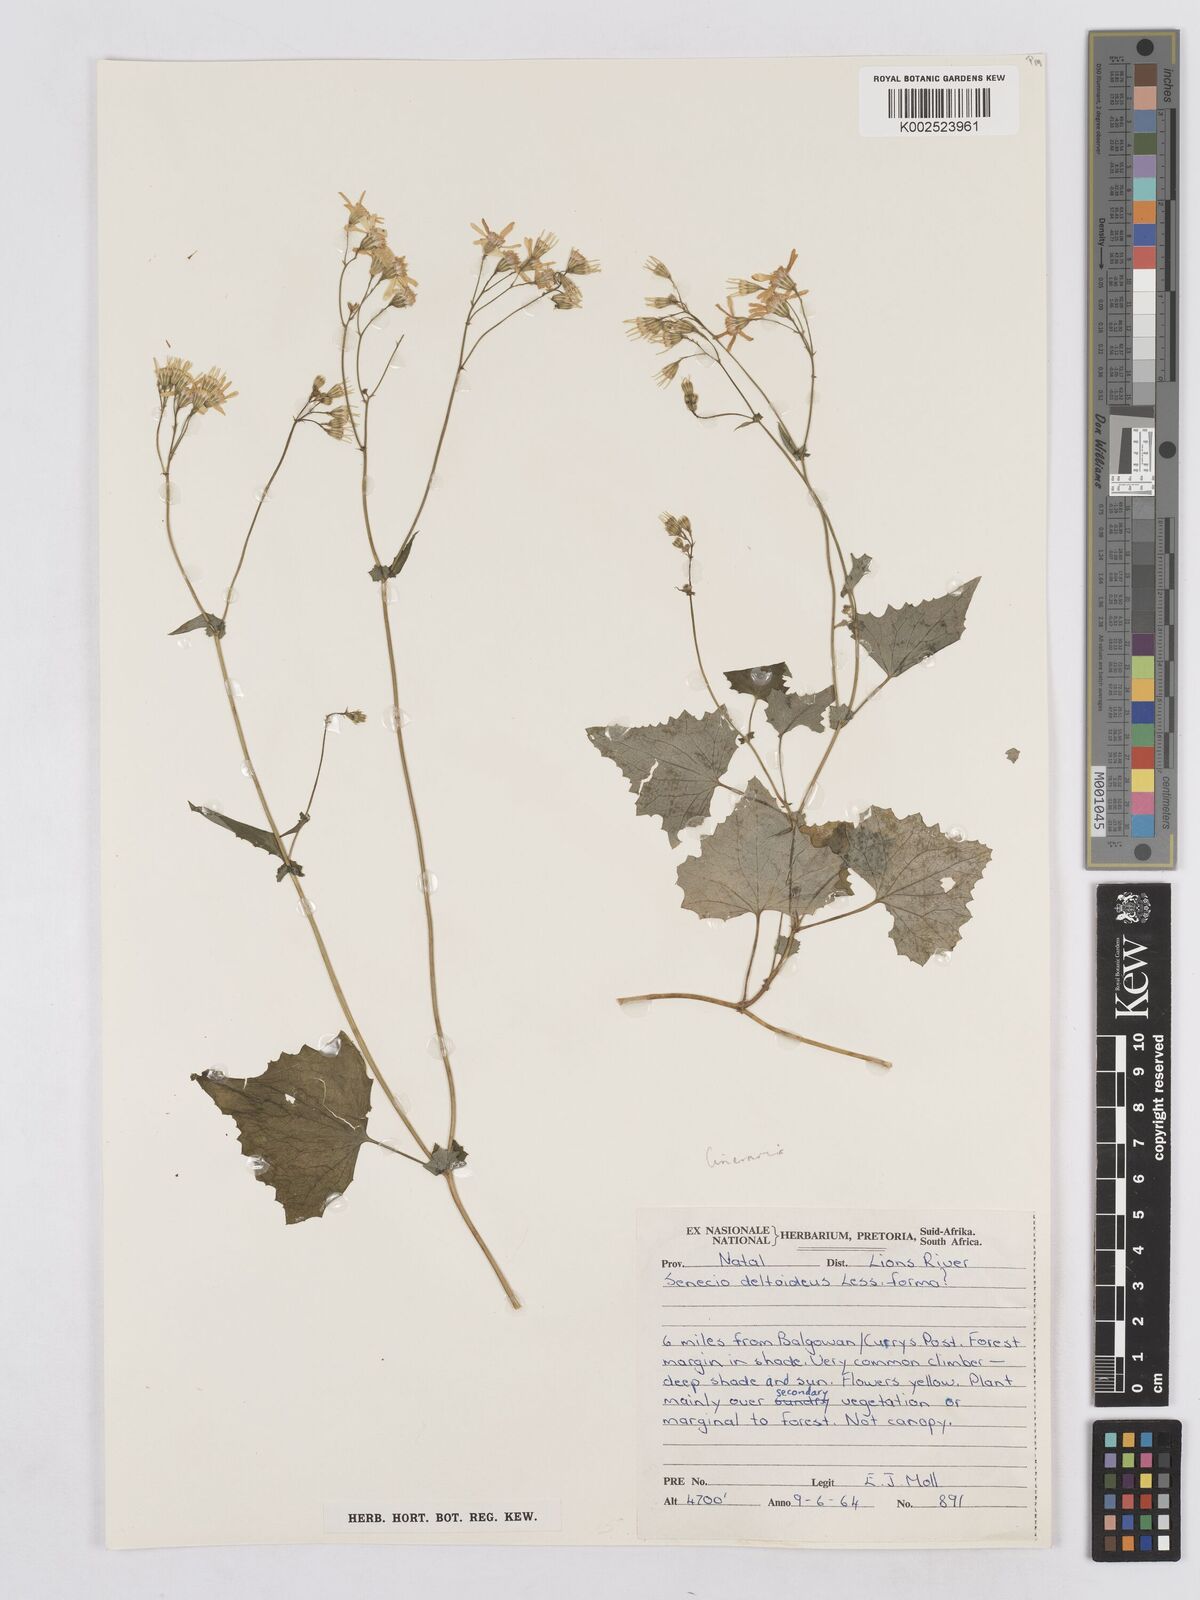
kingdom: Plantae
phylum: Tracheophyta
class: Magnoliopsida
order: Asterales
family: Asteraceae
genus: Senecio
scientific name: Senecio deltoideus
